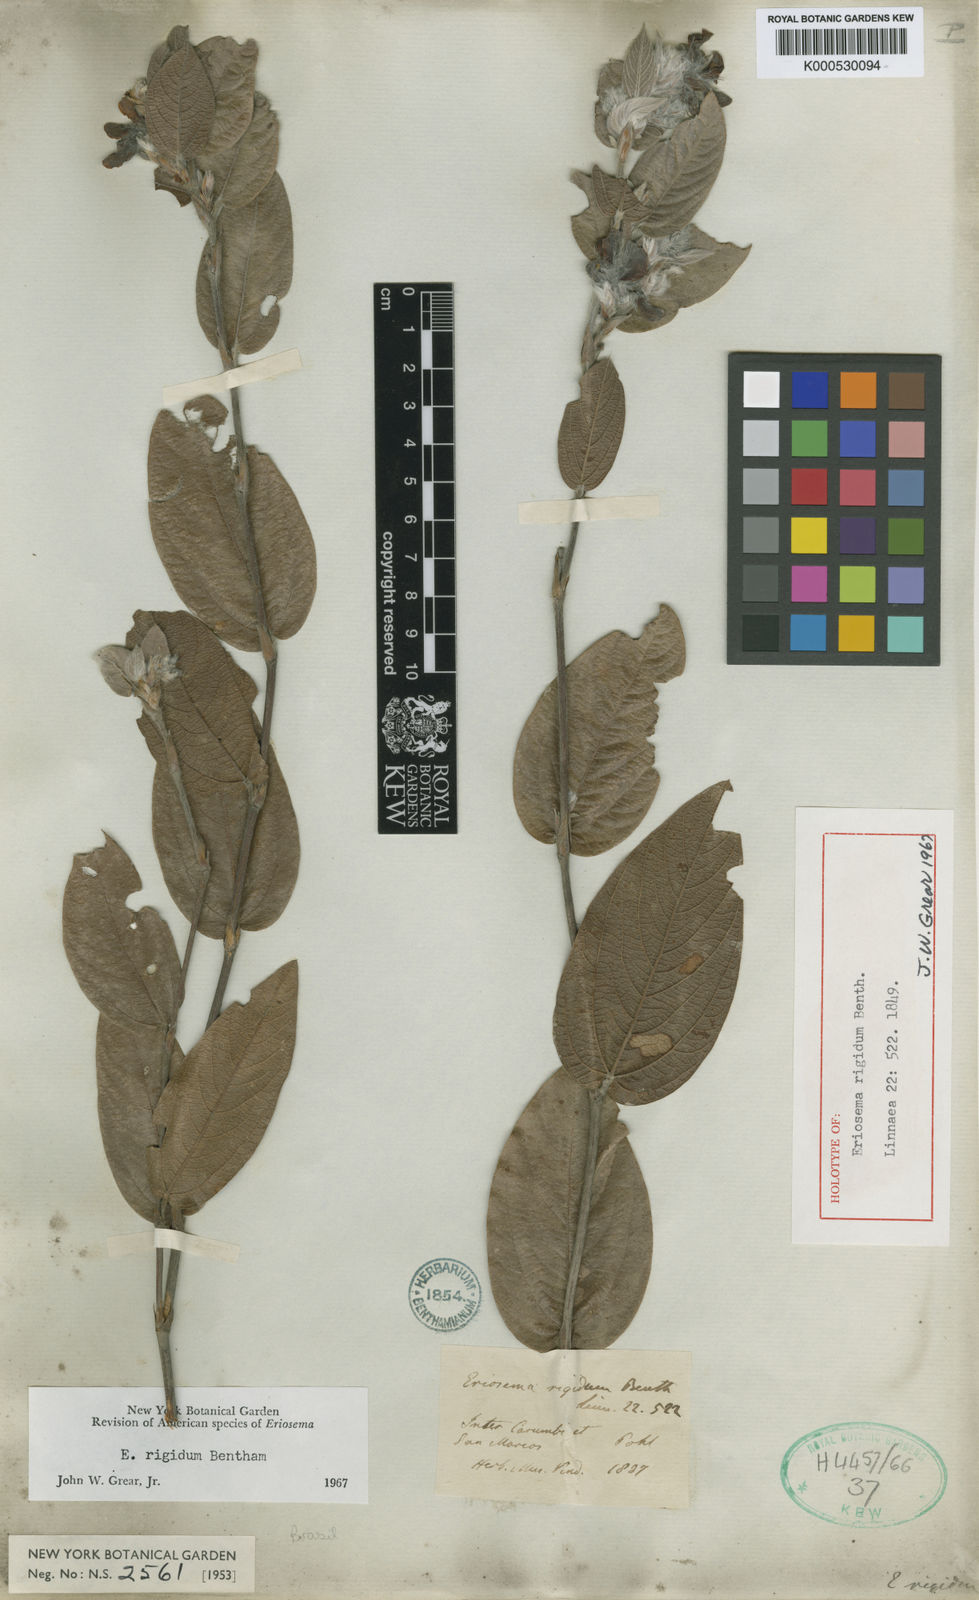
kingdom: Plantae
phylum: Tracheophyta
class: Magnoliopsida
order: Fabales
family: Fabaceae
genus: Eriosema
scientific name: Eriosema rigidum
